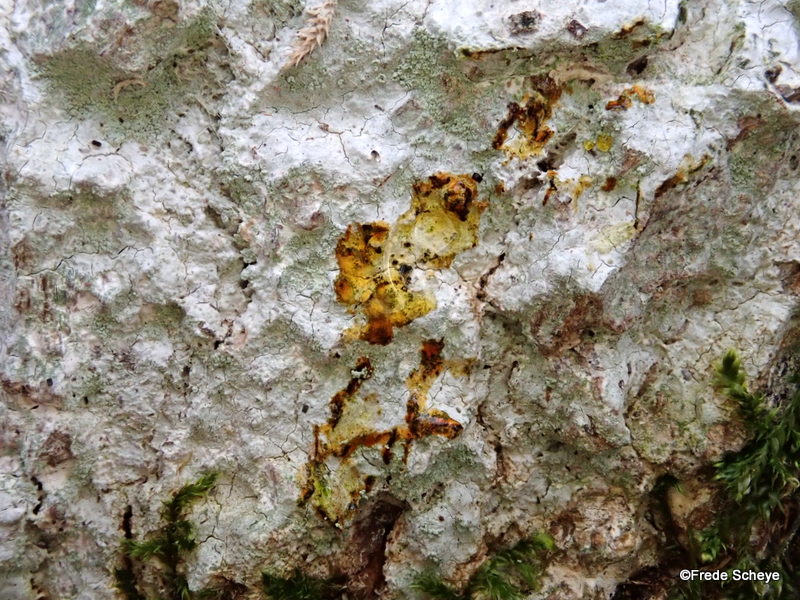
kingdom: Fungi
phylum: Ascomycota
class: Lecanoromycetes
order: Ostropales
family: Phlyctidaceae
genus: Phlyctis
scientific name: Phlyctis argena
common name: almindelig sølvlav
